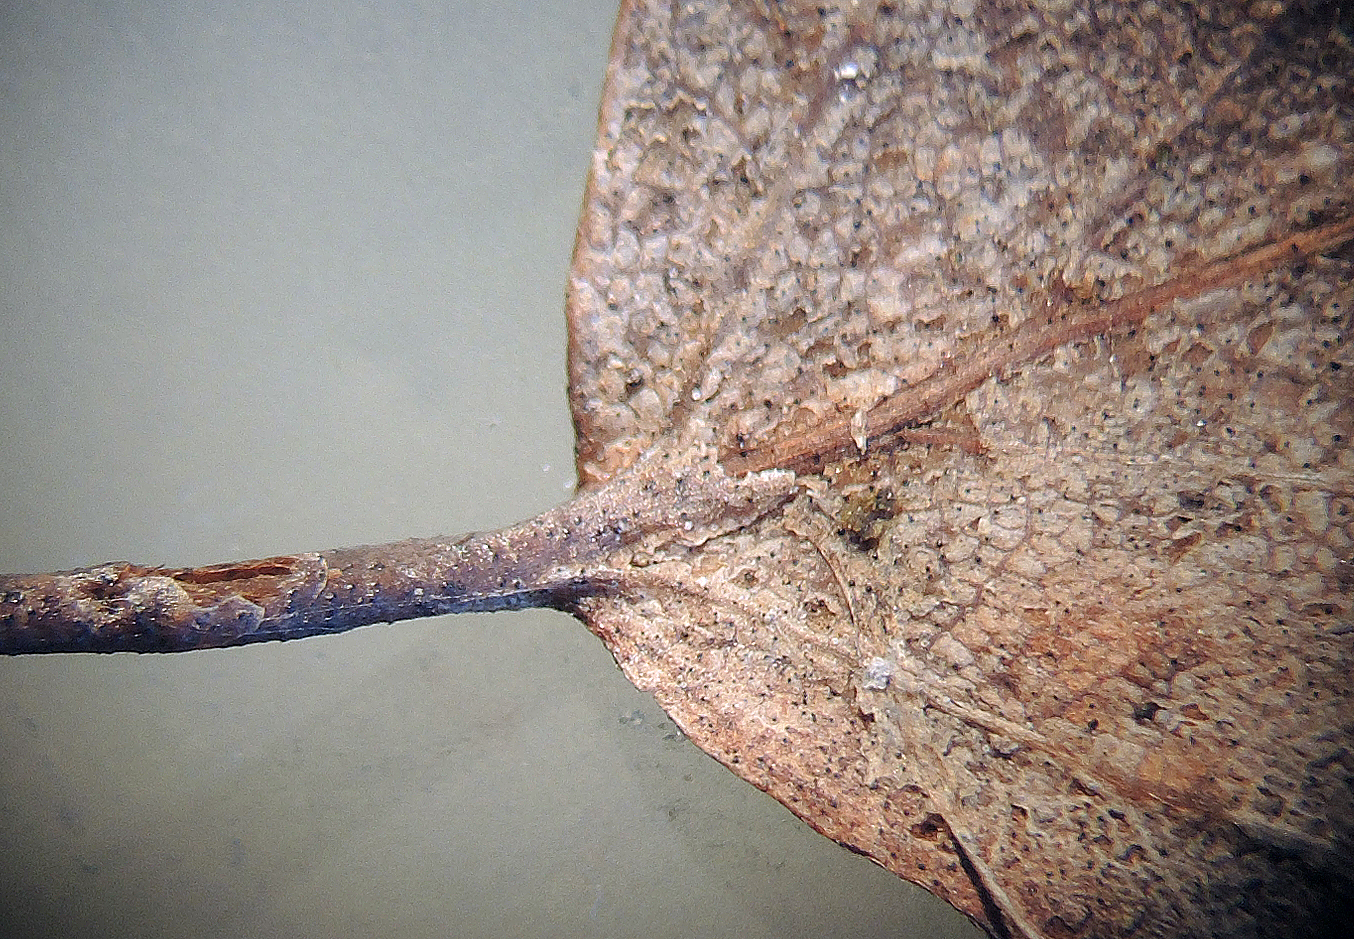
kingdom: Fungi
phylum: Ascomycota
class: Dothideomycetes
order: Mycosphaerellales
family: Mycosphaerellaceae
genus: Mycosphaerella
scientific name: Mycosphaerella punctiformis
